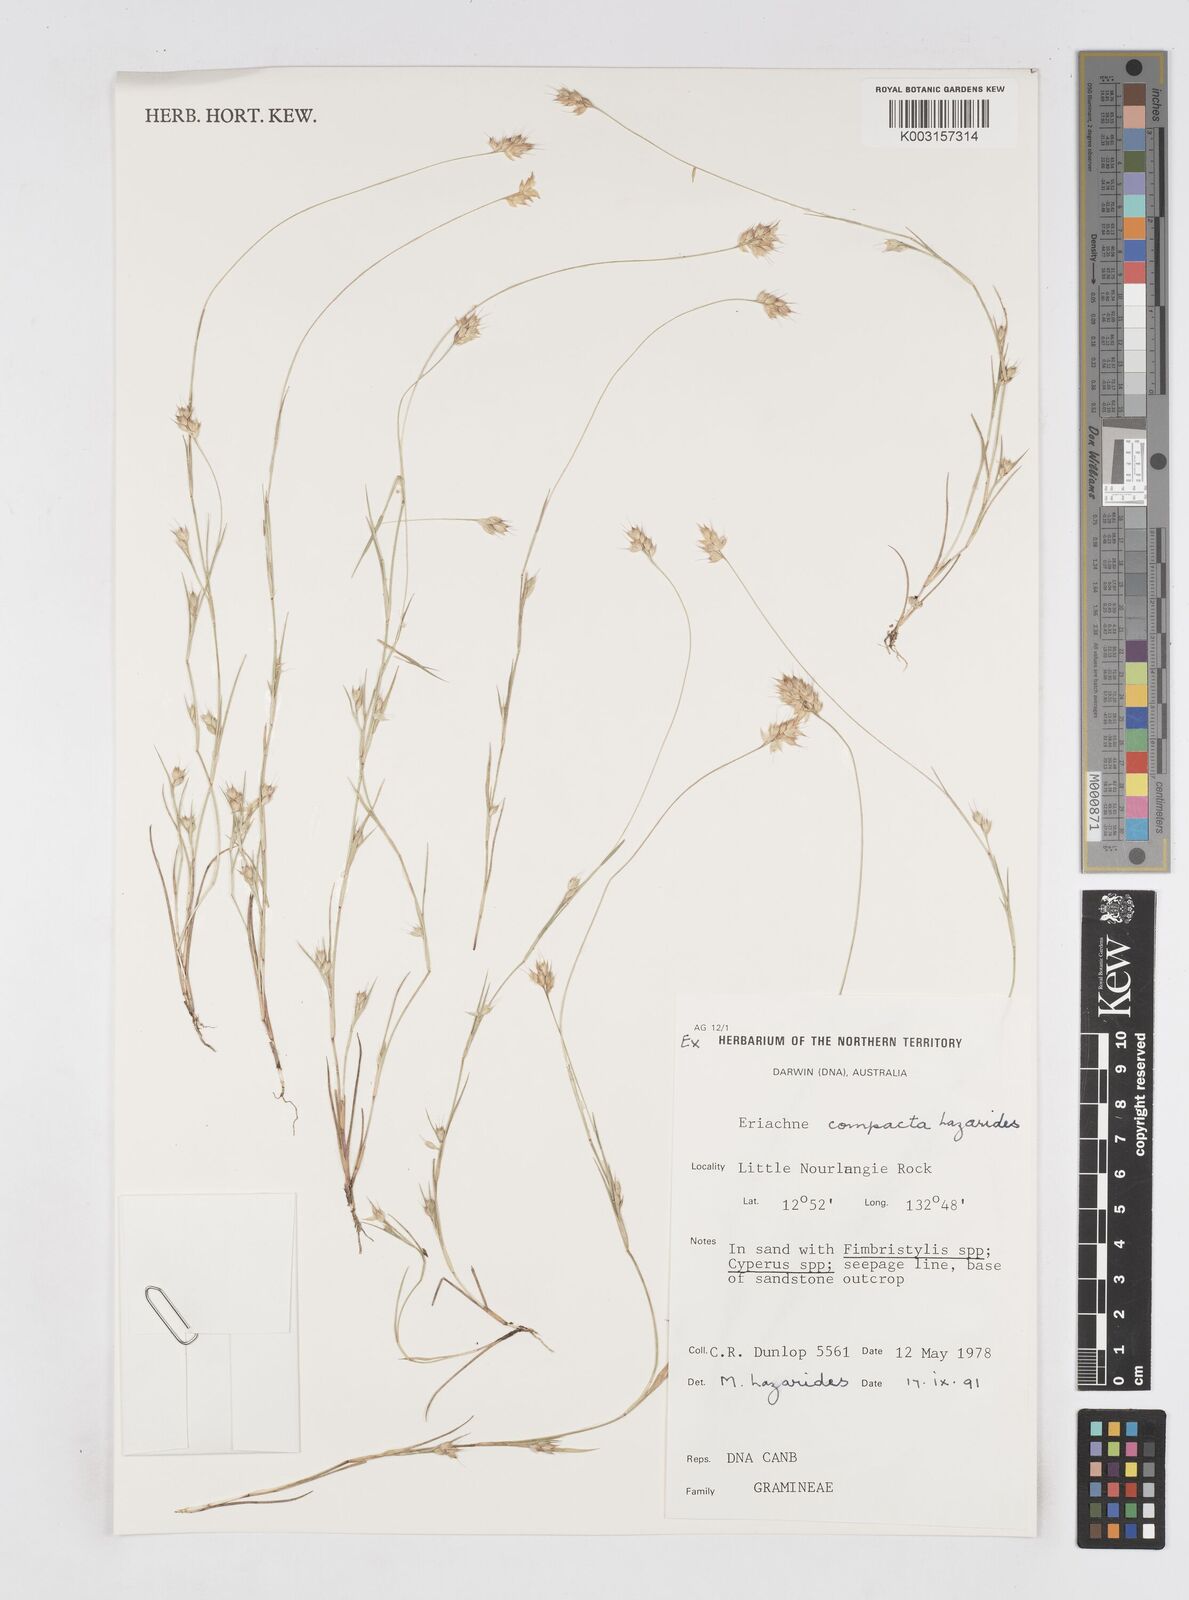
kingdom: Plantae
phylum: Tracheophyta
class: Liliopsida
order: Poales
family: Poaceae
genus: Eriachne
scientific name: Eriachne compacta
